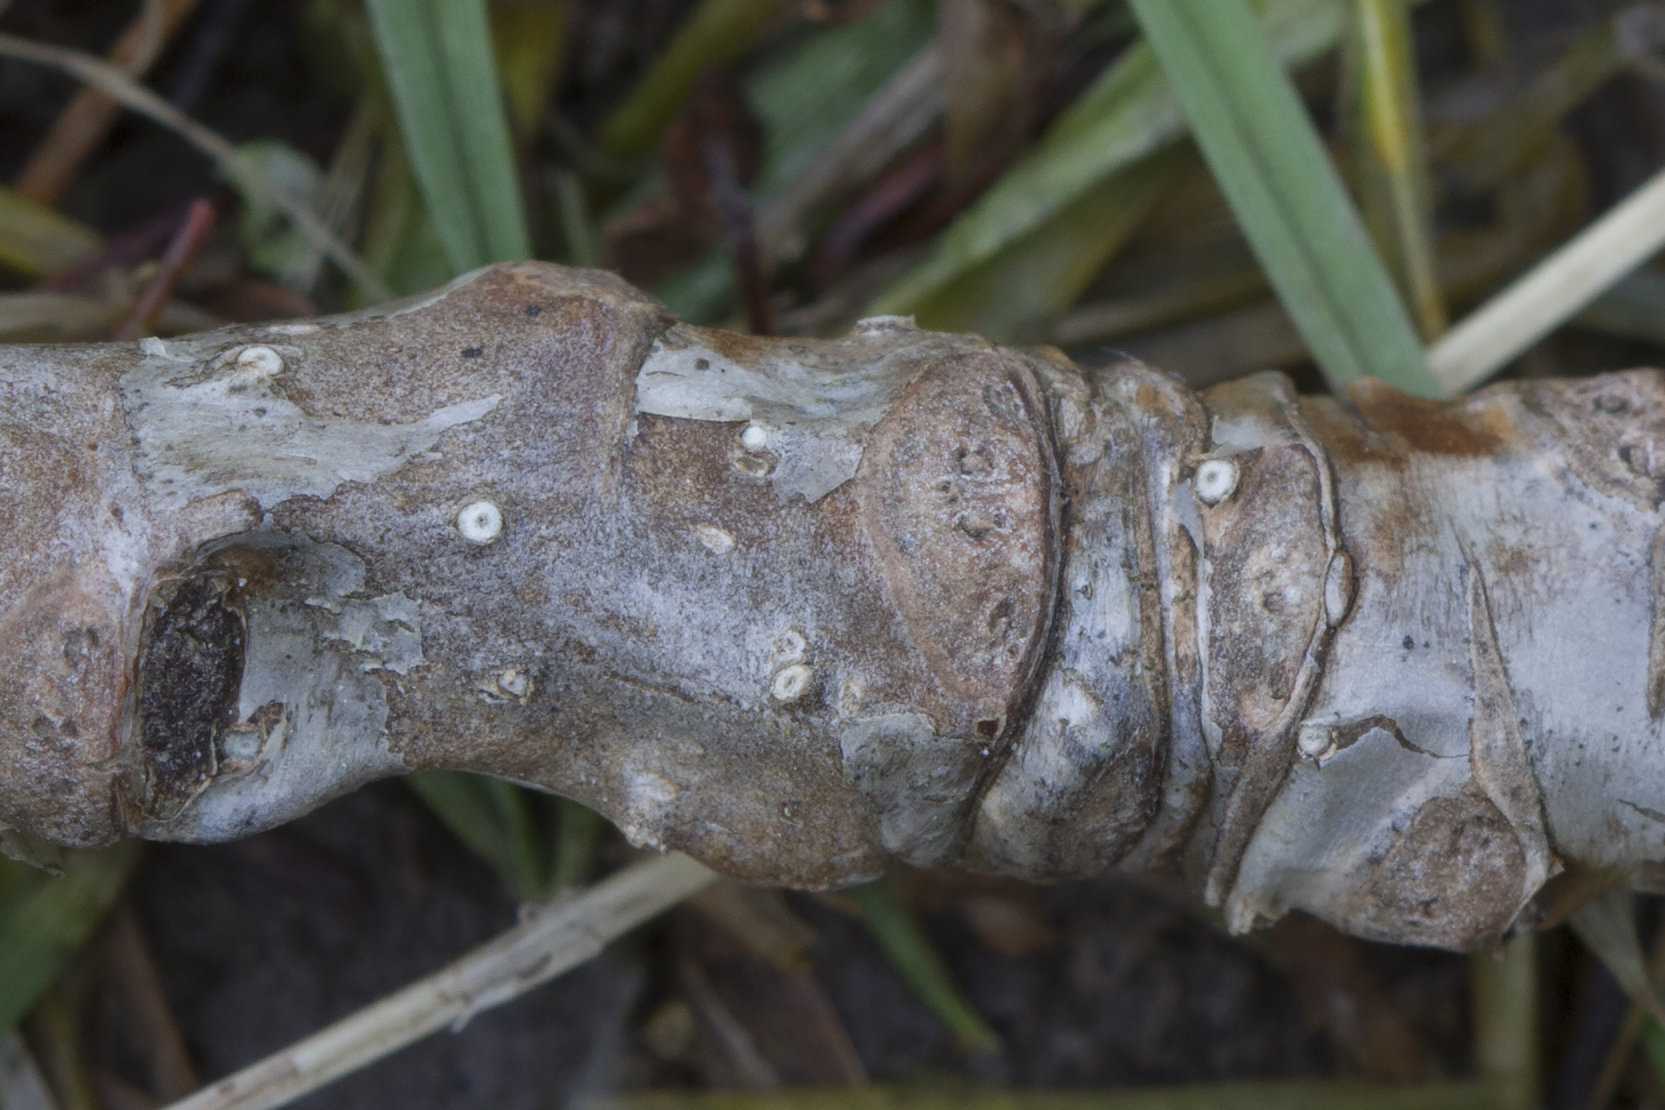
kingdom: Fungi
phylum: Ascomycota
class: Sordariomycetes
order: Diaporthales
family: Valsaceae
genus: Cytospora
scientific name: Cytospora nivea
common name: hvidskivet kulknippe
